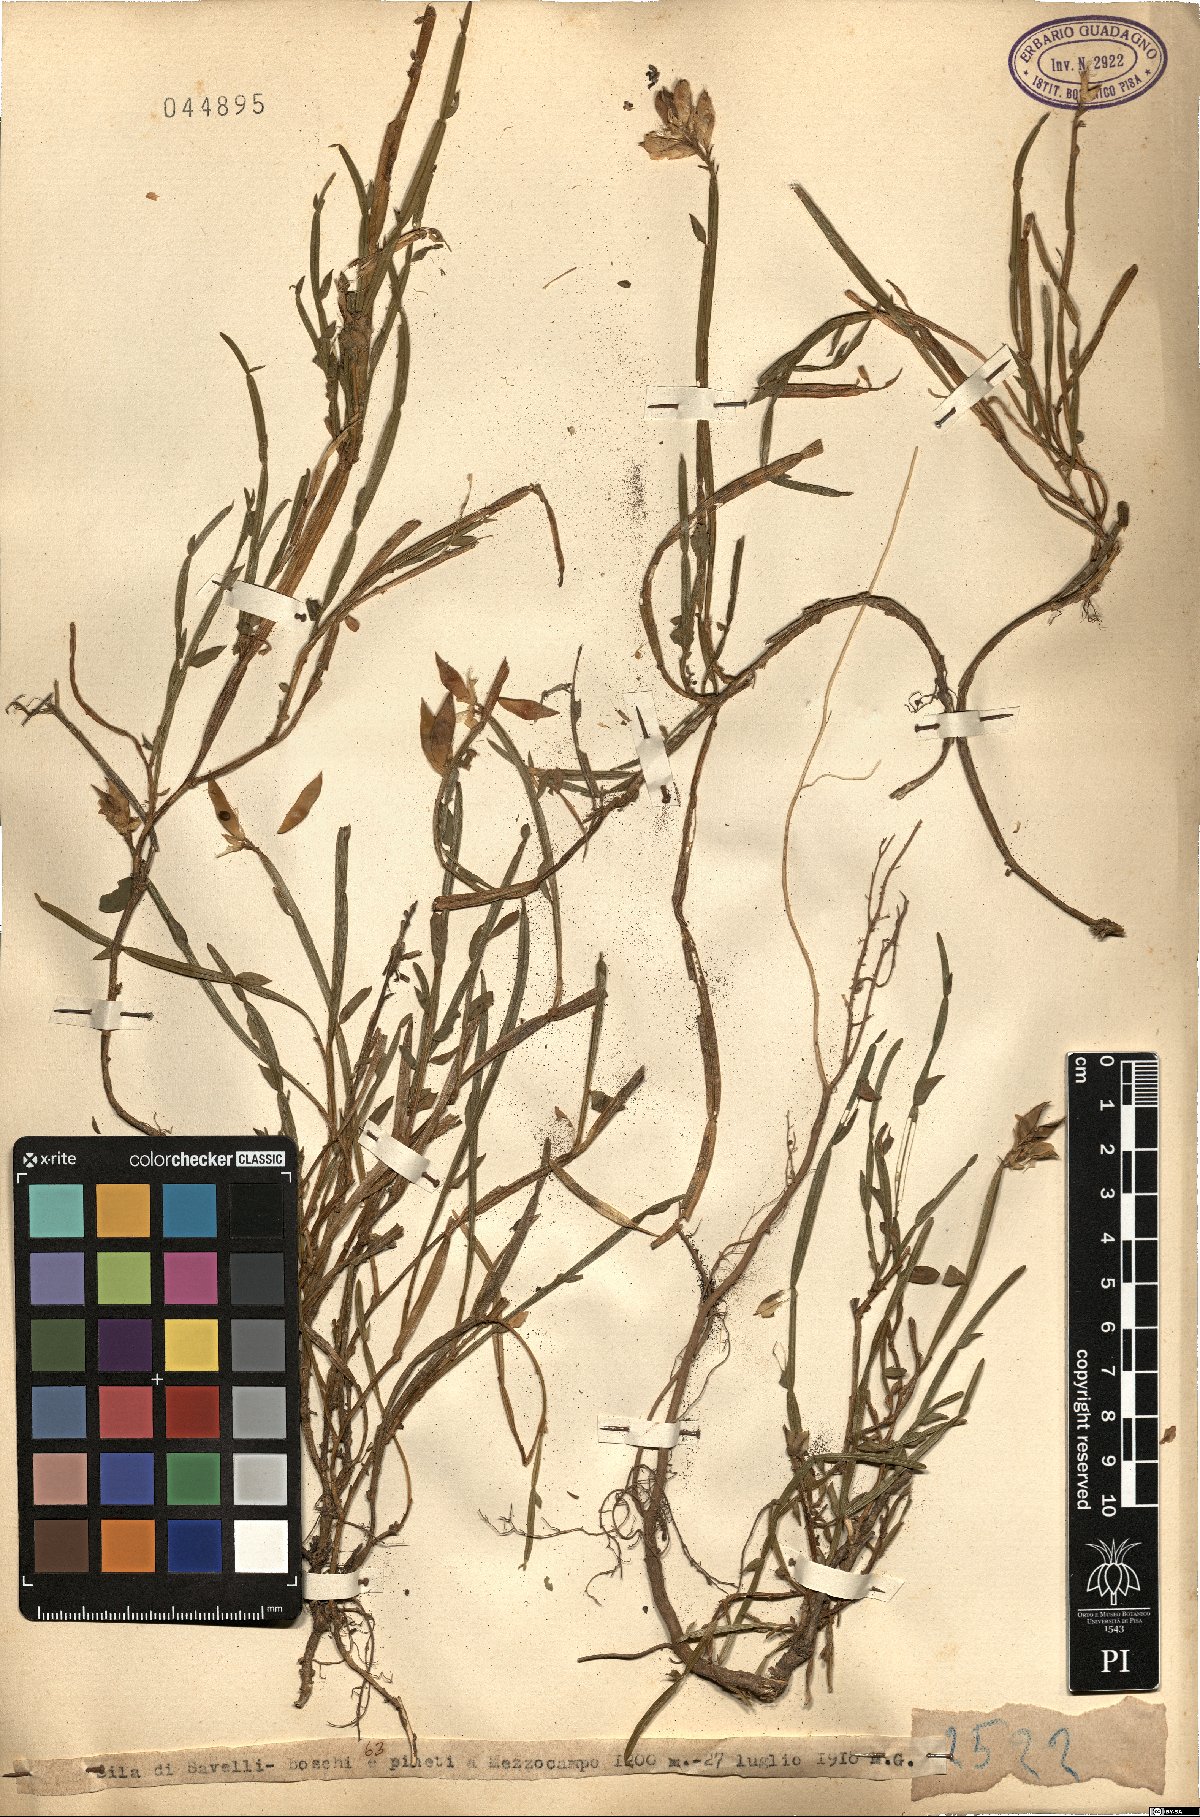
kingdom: Plantae
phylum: Tracheophyta
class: Magnoliopsida
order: Fabales
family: Fabaceae
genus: Genista
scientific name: Genista
